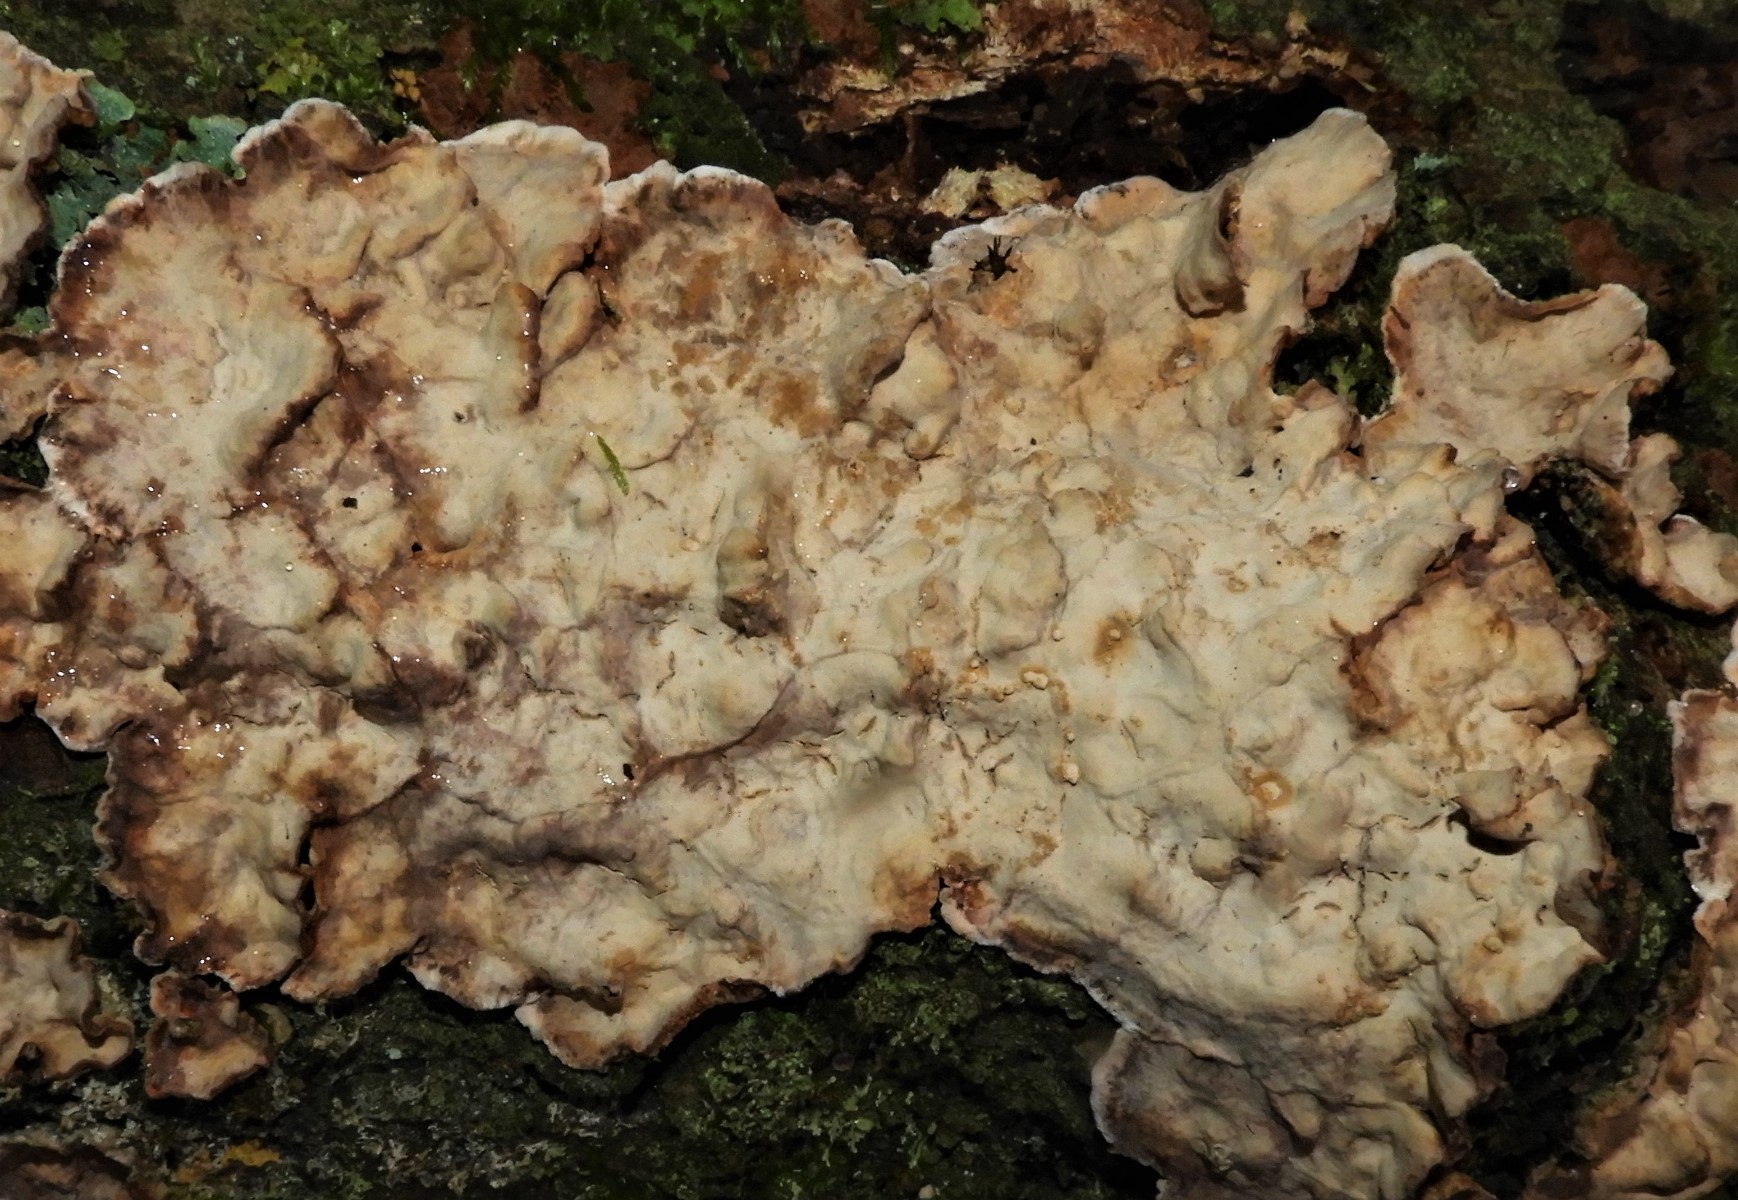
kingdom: Fungi
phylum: Basidiomycota
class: Agaricomycetes
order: Russulales
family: Stereaceae
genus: Stereum
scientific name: Stereum rugosum
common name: rynket lædersvamp
